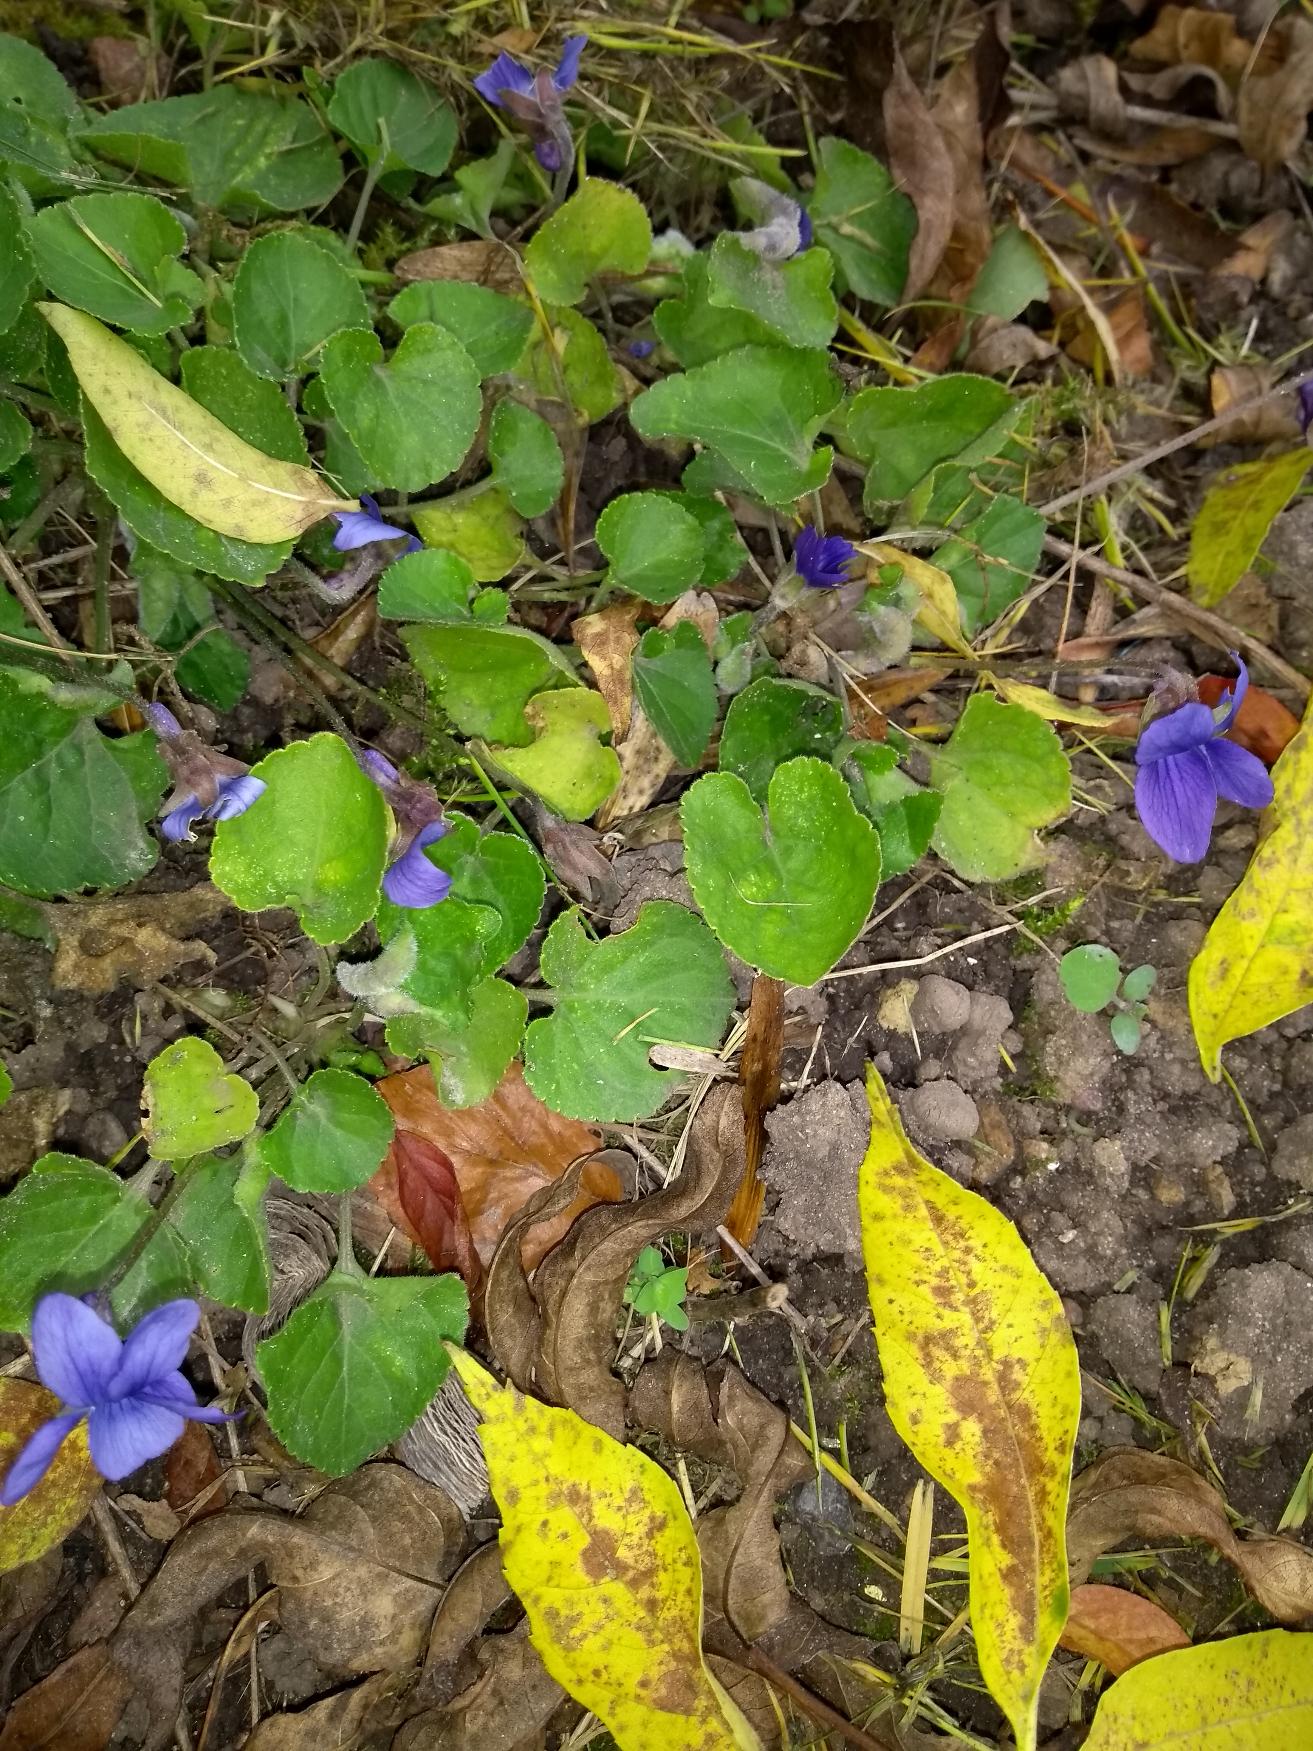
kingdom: Plantae
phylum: Tracheophyta
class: Magnoliopsida
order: Malpighiales
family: Violaceae
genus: Viola
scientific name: Viola odorata
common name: Marts-viol
